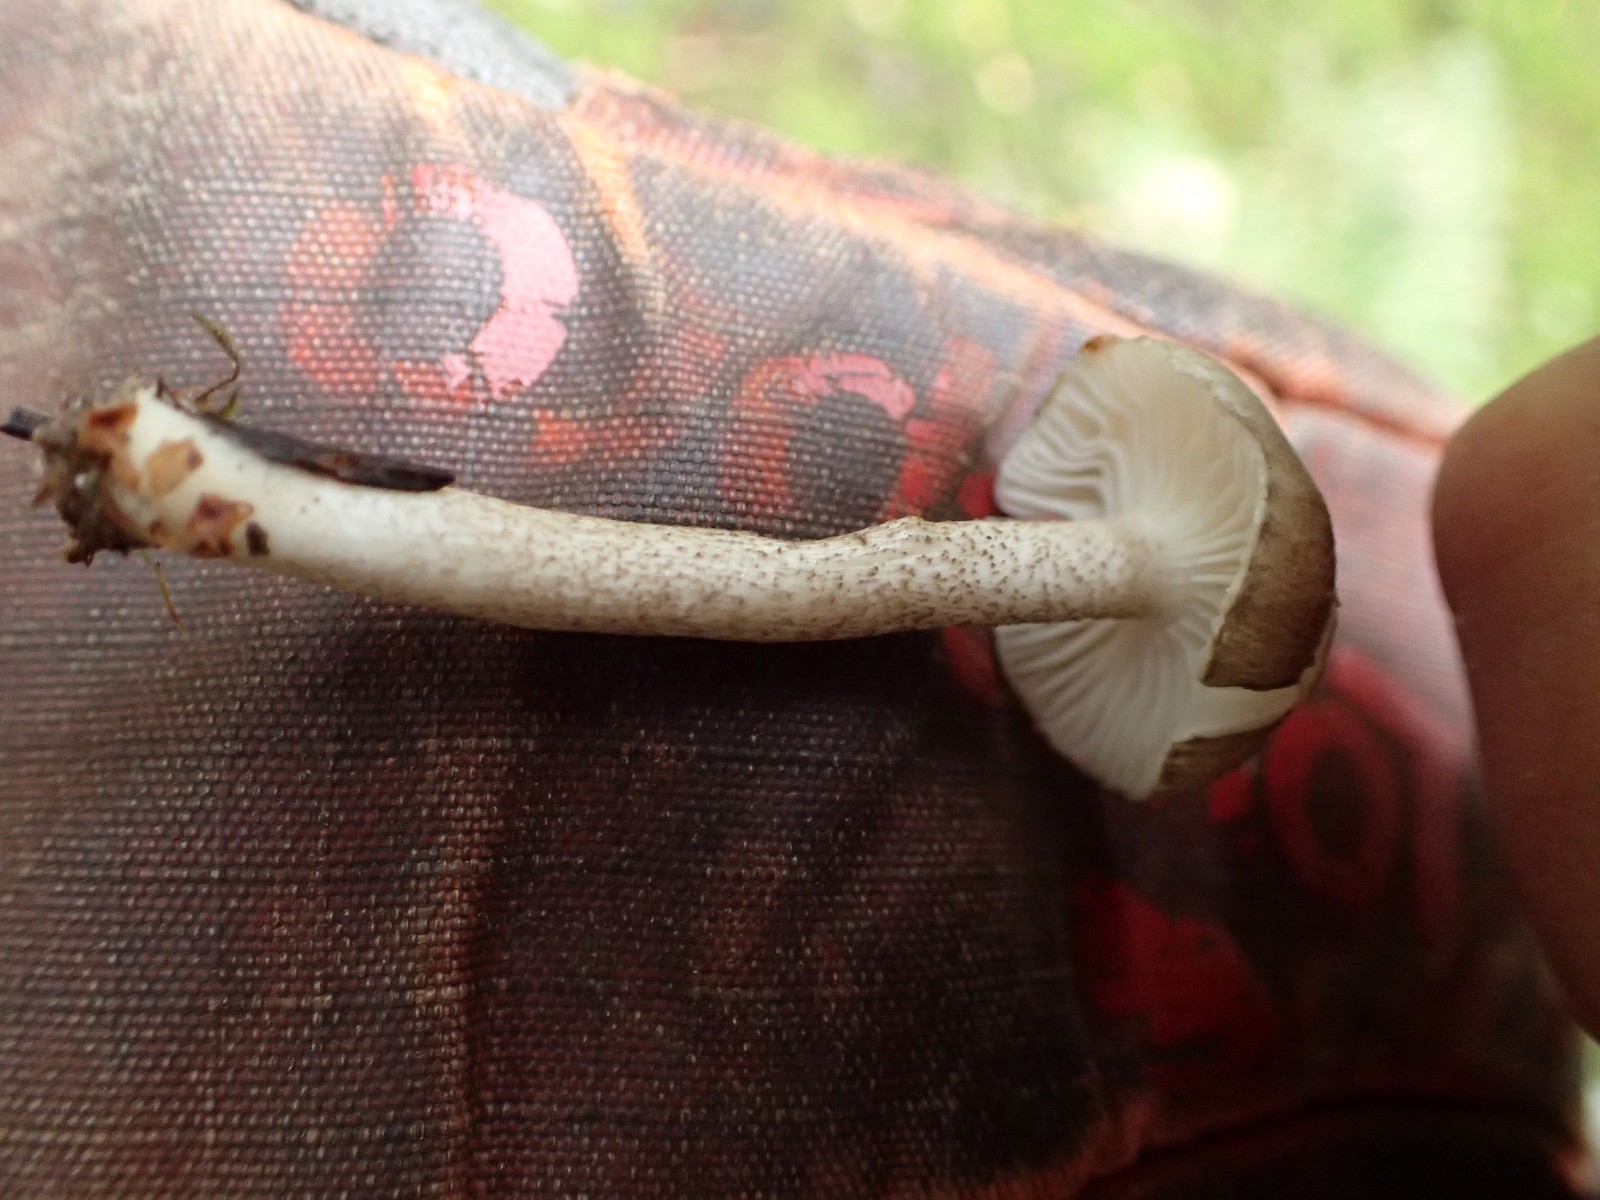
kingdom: Fungi
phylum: Basidiomycota
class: Agaricomycetes
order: Agaricales
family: Hygrophoraceae
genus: Hygrophorus
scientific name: Hygrophorus pustulatus
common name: mørkprikket sneglehat
